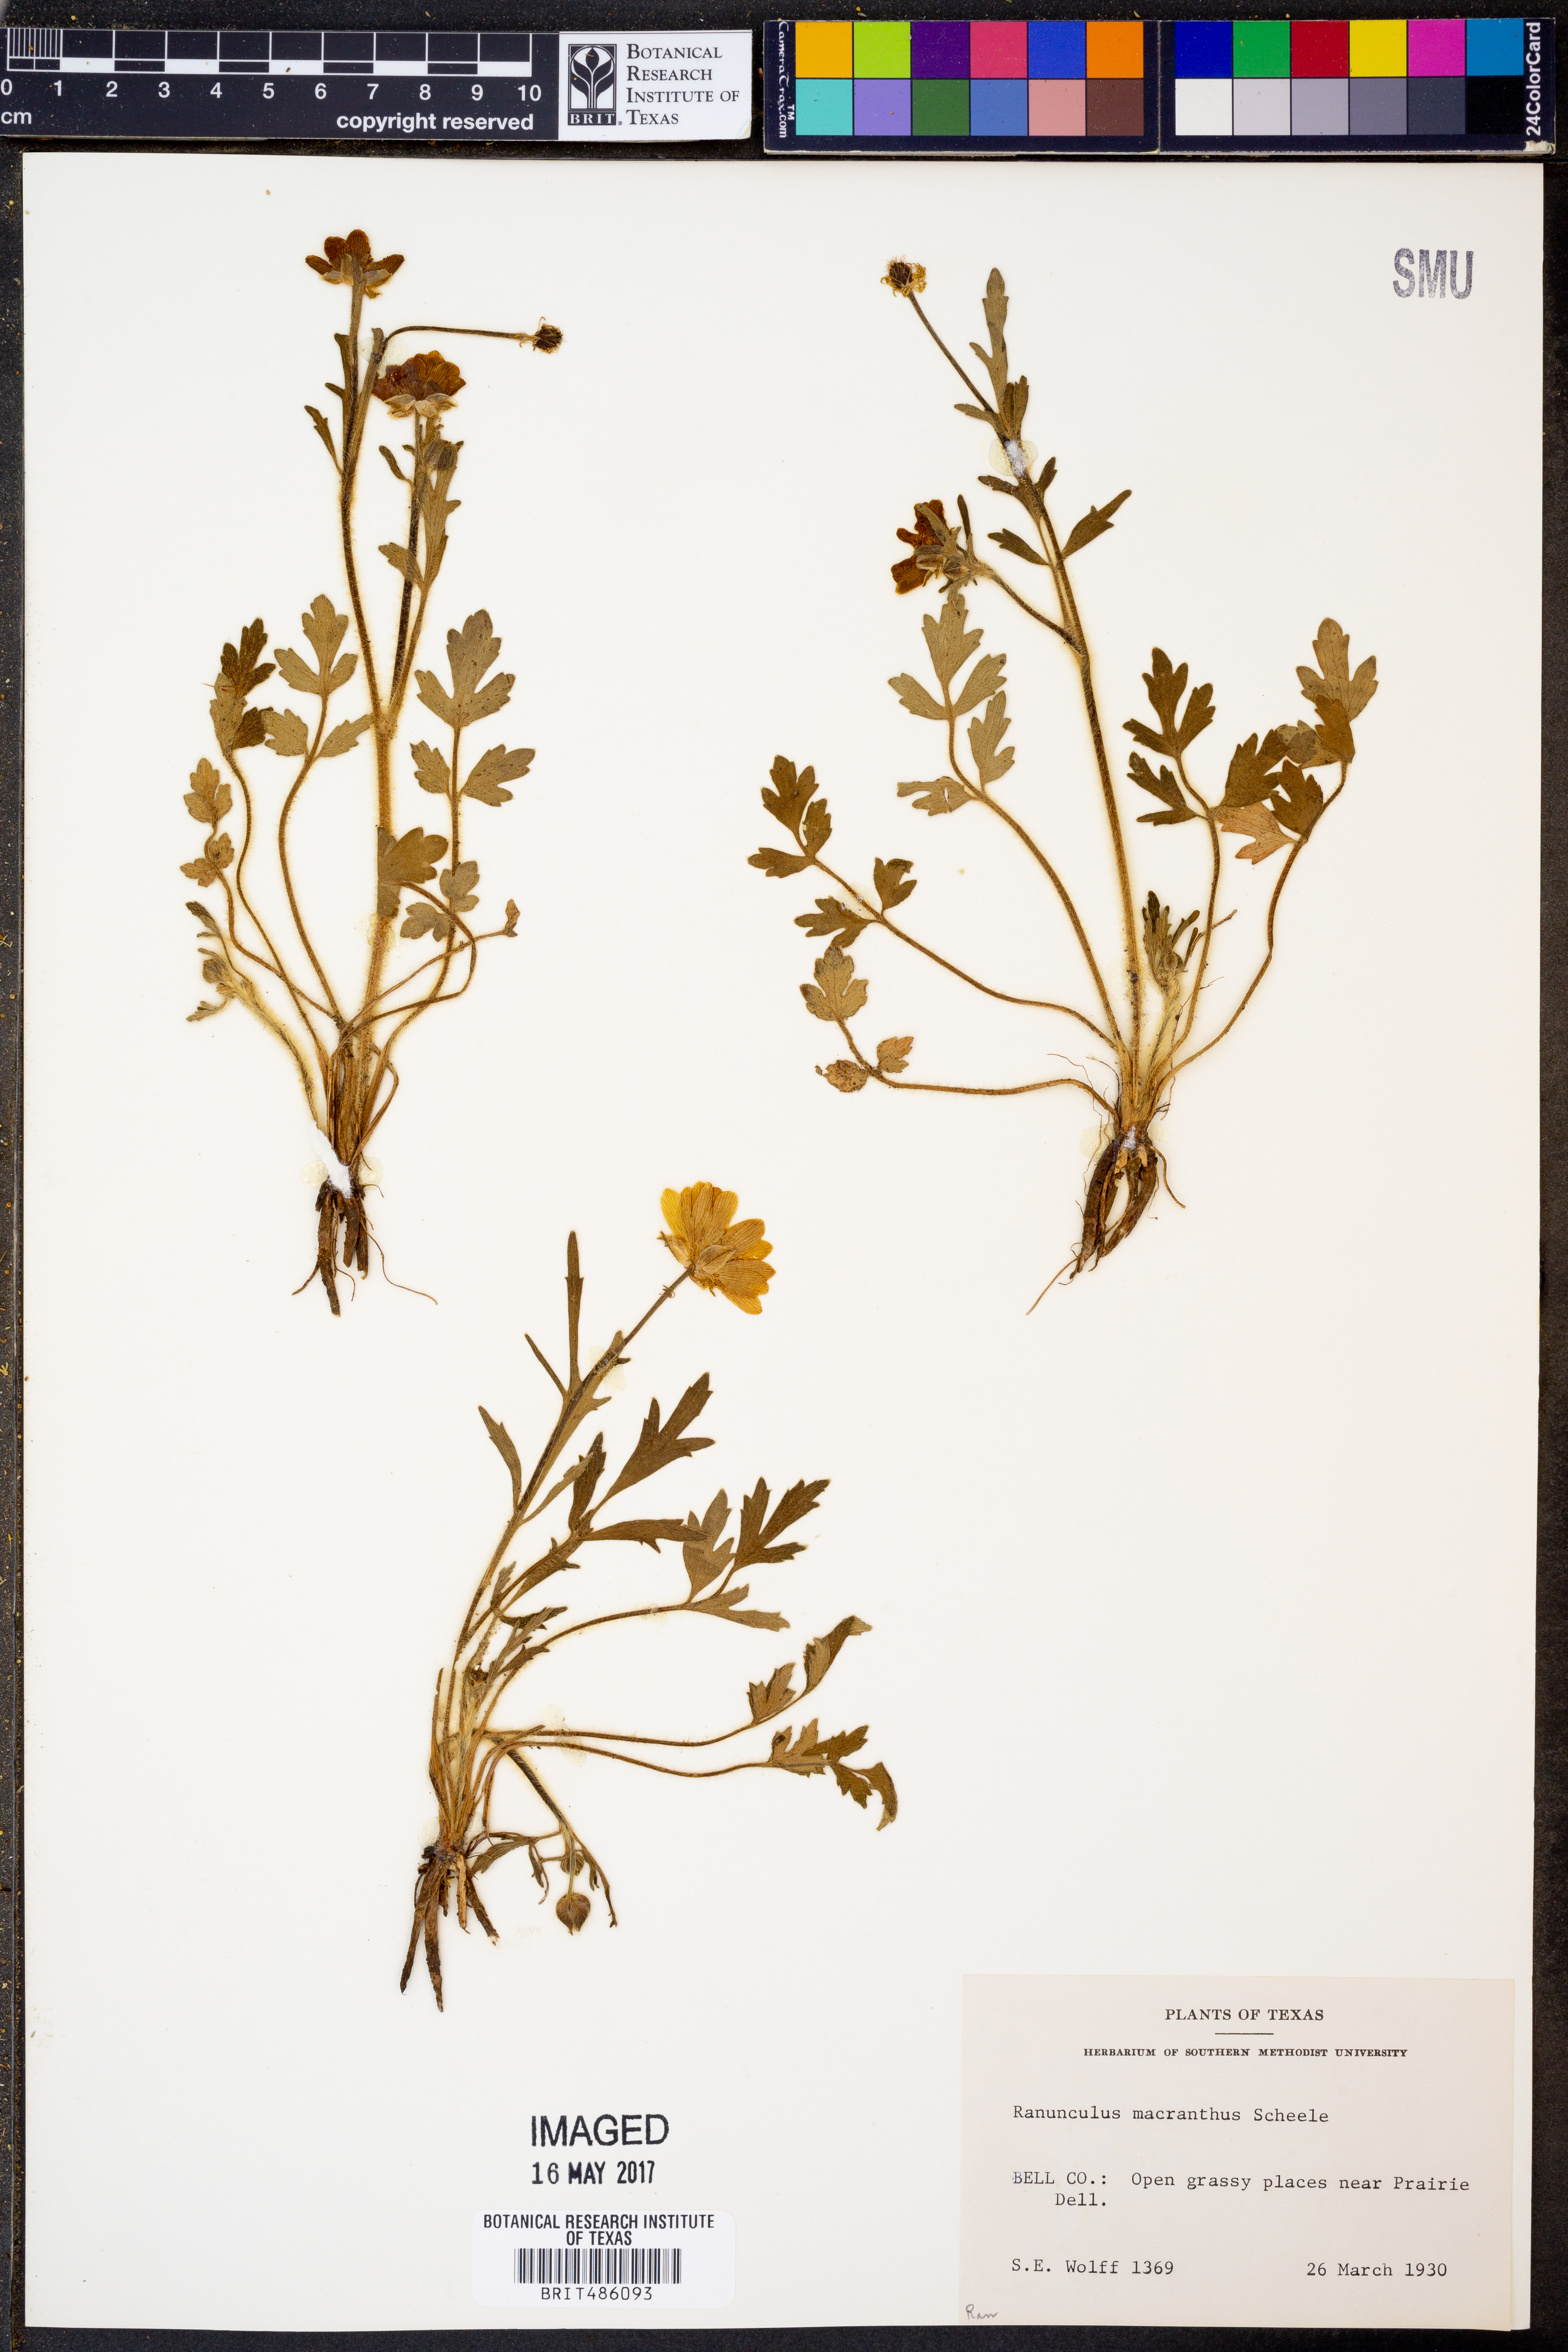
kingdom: Plantae
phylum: Tracheophyta
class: Magnoliopsida
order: Ranunculales
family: Ranunculaceae
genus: Ranunculus
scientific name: Ranunculus macranthus
